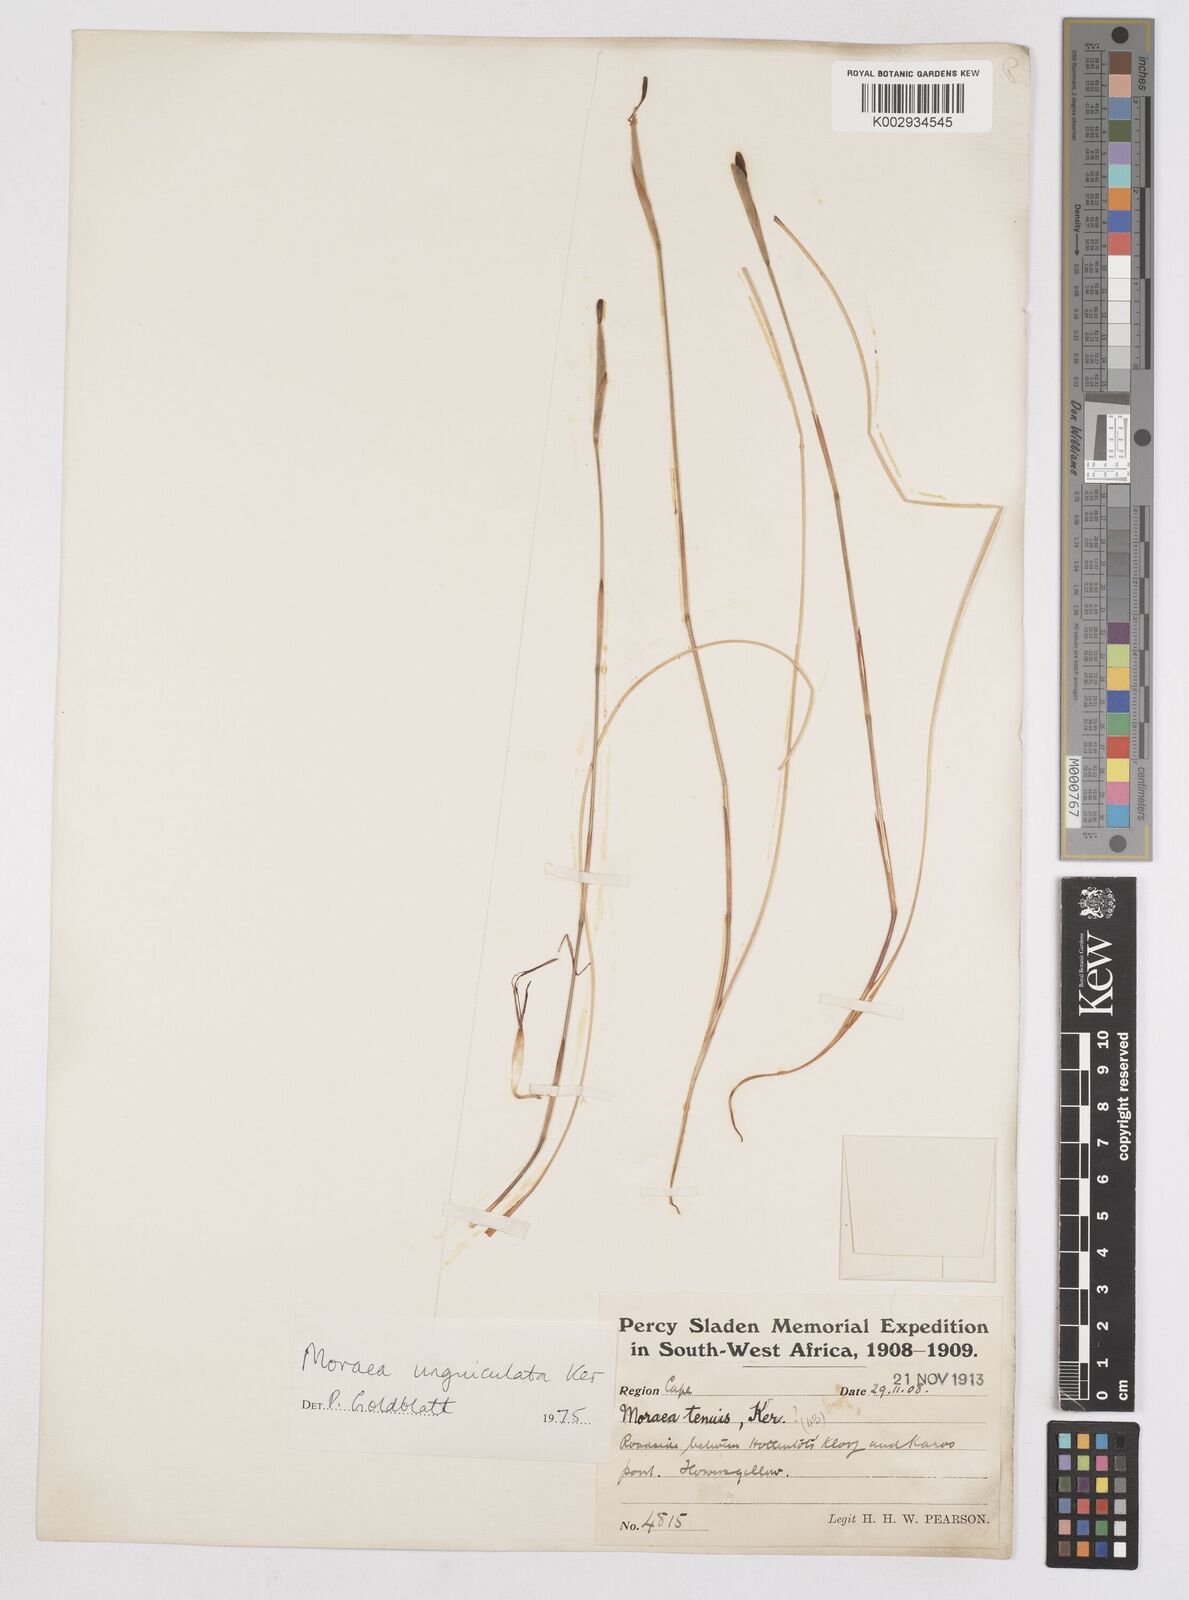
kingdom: Plantae
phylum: Tracheophyta
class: Liliopsida
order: Asparagales
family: Iridaceae
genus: Moraea
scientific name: Moraea unguiculata
